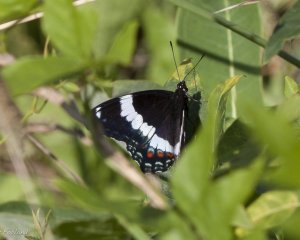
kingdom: Animalia
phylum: Arthropoda
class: Insecta
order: Lepidoptera
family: Nymphalidae
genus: Limenitis
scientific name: Limenitis arthemis
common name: Red-spotted Admiral
